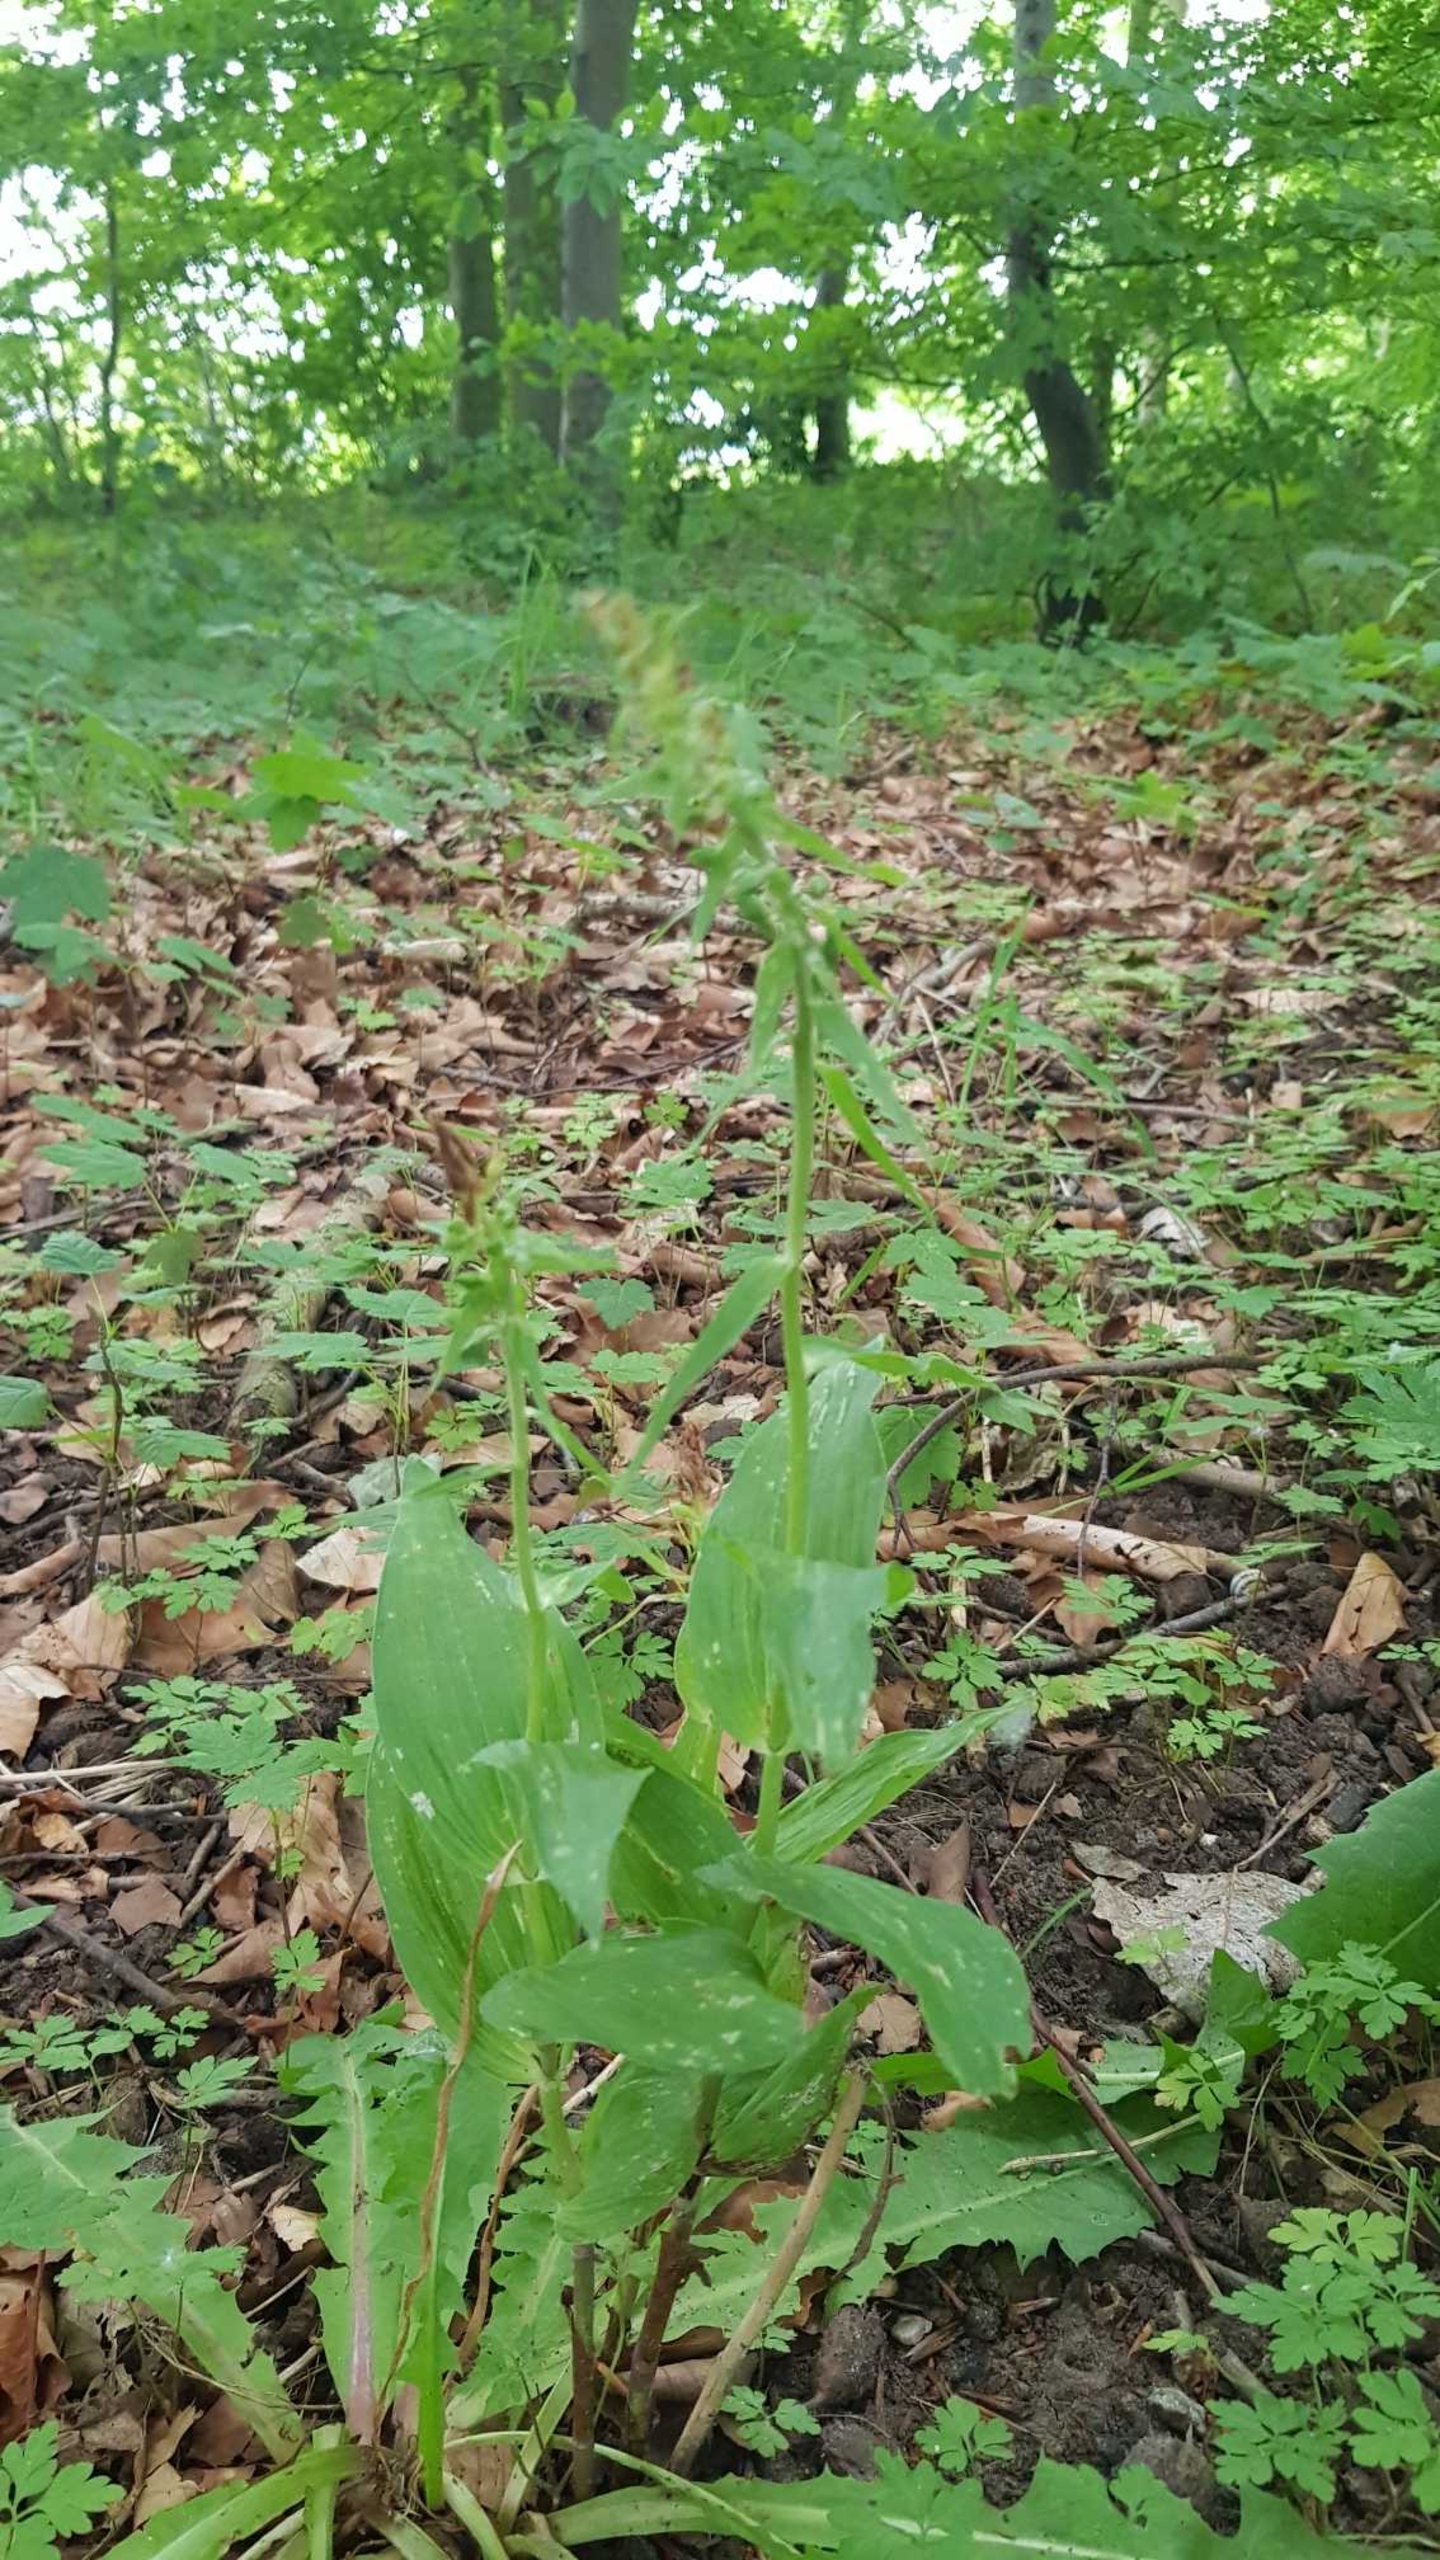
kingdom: Plantae
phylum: Tracheophyta
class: Liliopsida
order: Asparagales
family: Orchidaceae
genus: Epipactis
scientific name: Epipactis helleborine
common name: Skov-hullæbe
